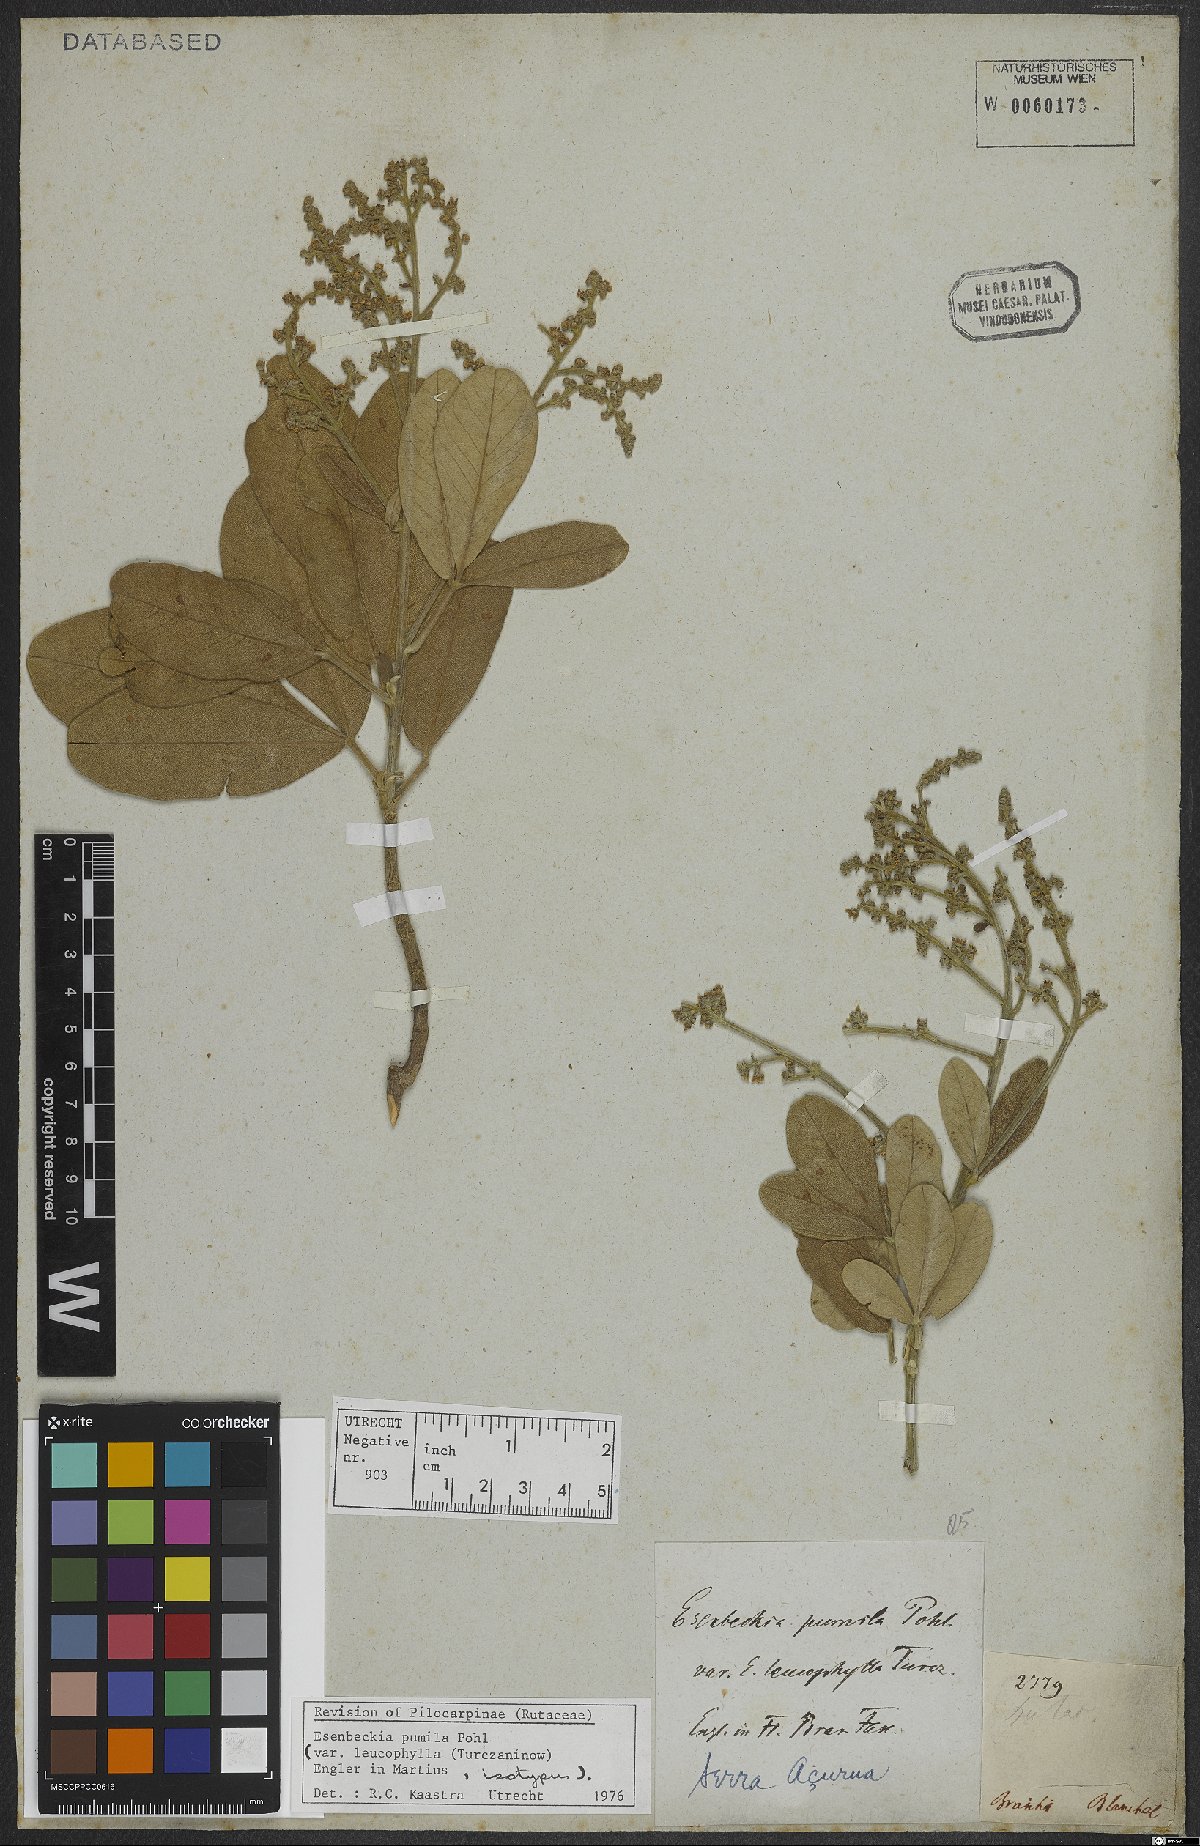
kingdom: Plantae
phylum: Tracheophyta
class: Magnoliopsida
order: Sapindales
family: Rutaceae
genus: Esenbeckia
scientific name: Esenbeckia pumila
